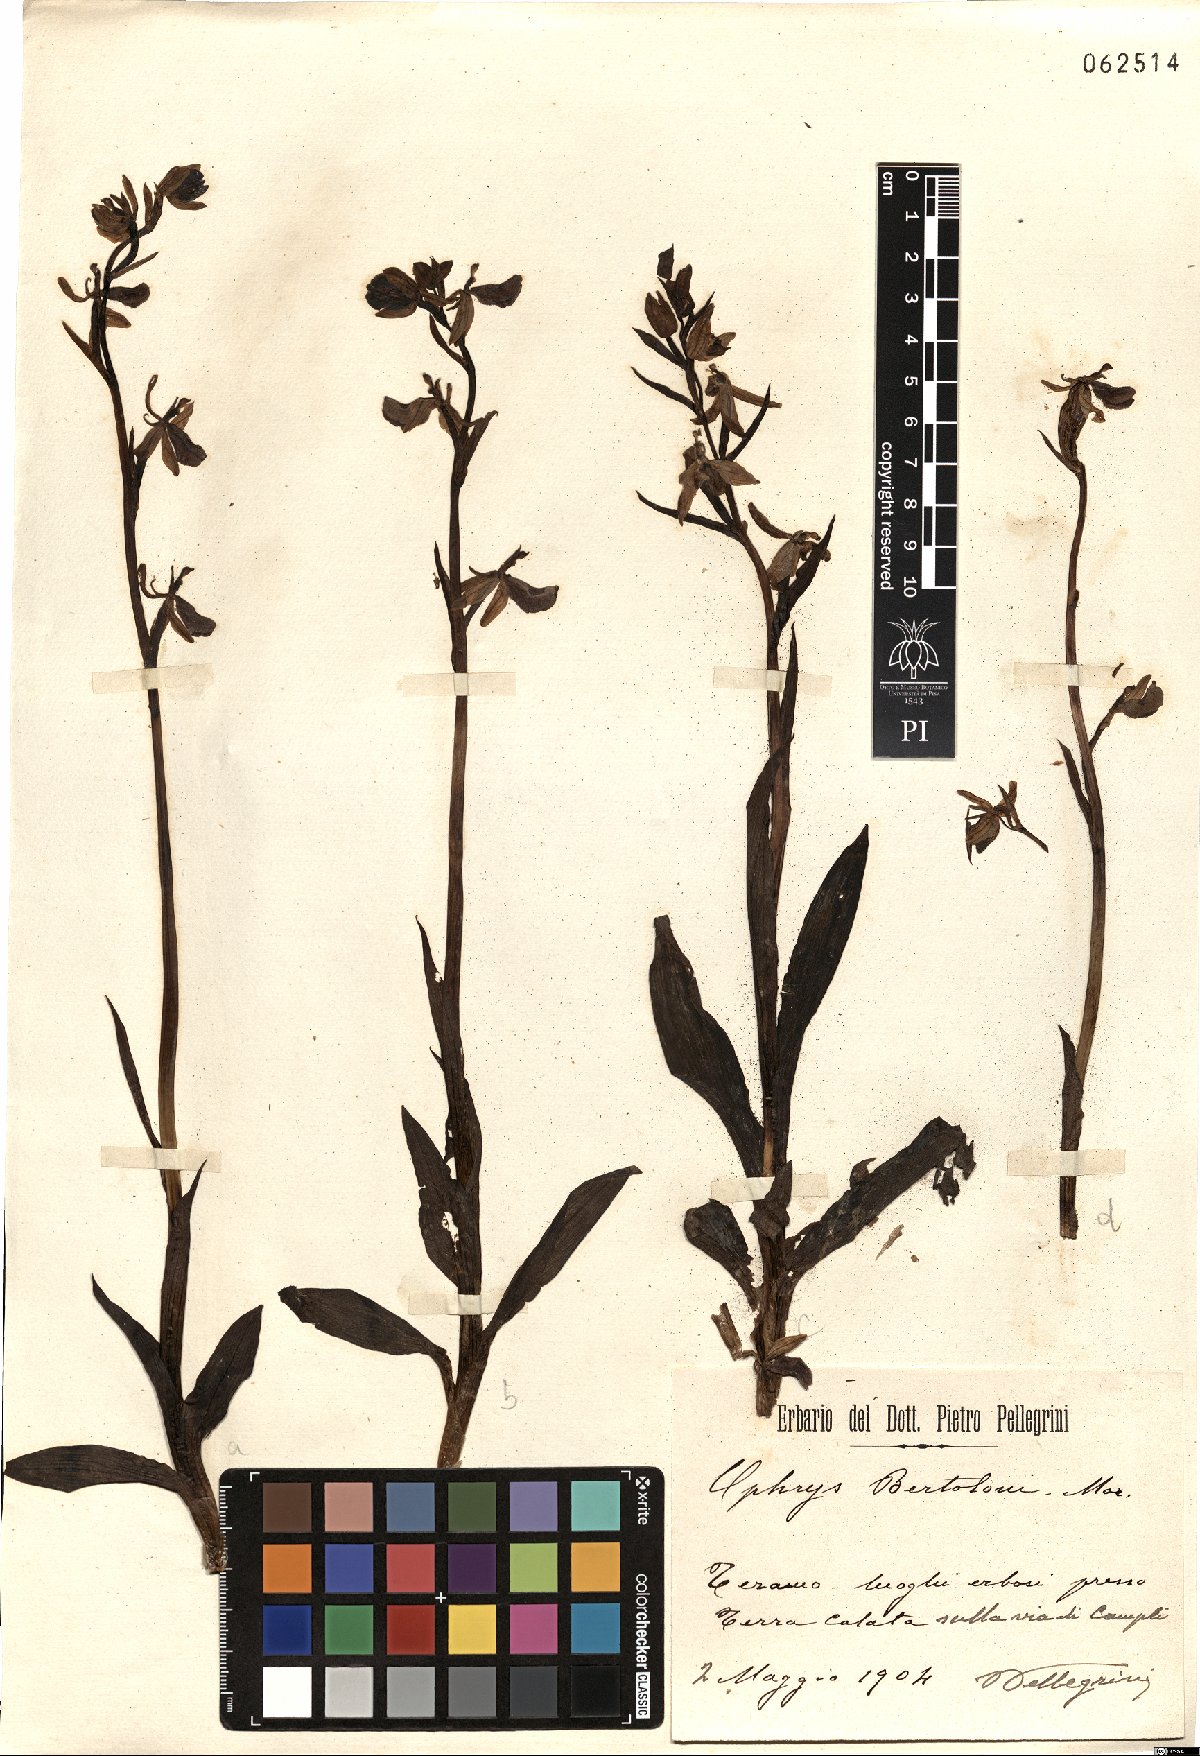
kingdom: Plantae
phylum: Tracheophyta
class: Liliopsida
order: Asparagales
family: Orchidaceae
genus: Ophrys
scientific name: Ophrys bertolonii
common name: Bertoloni's bee orchid
